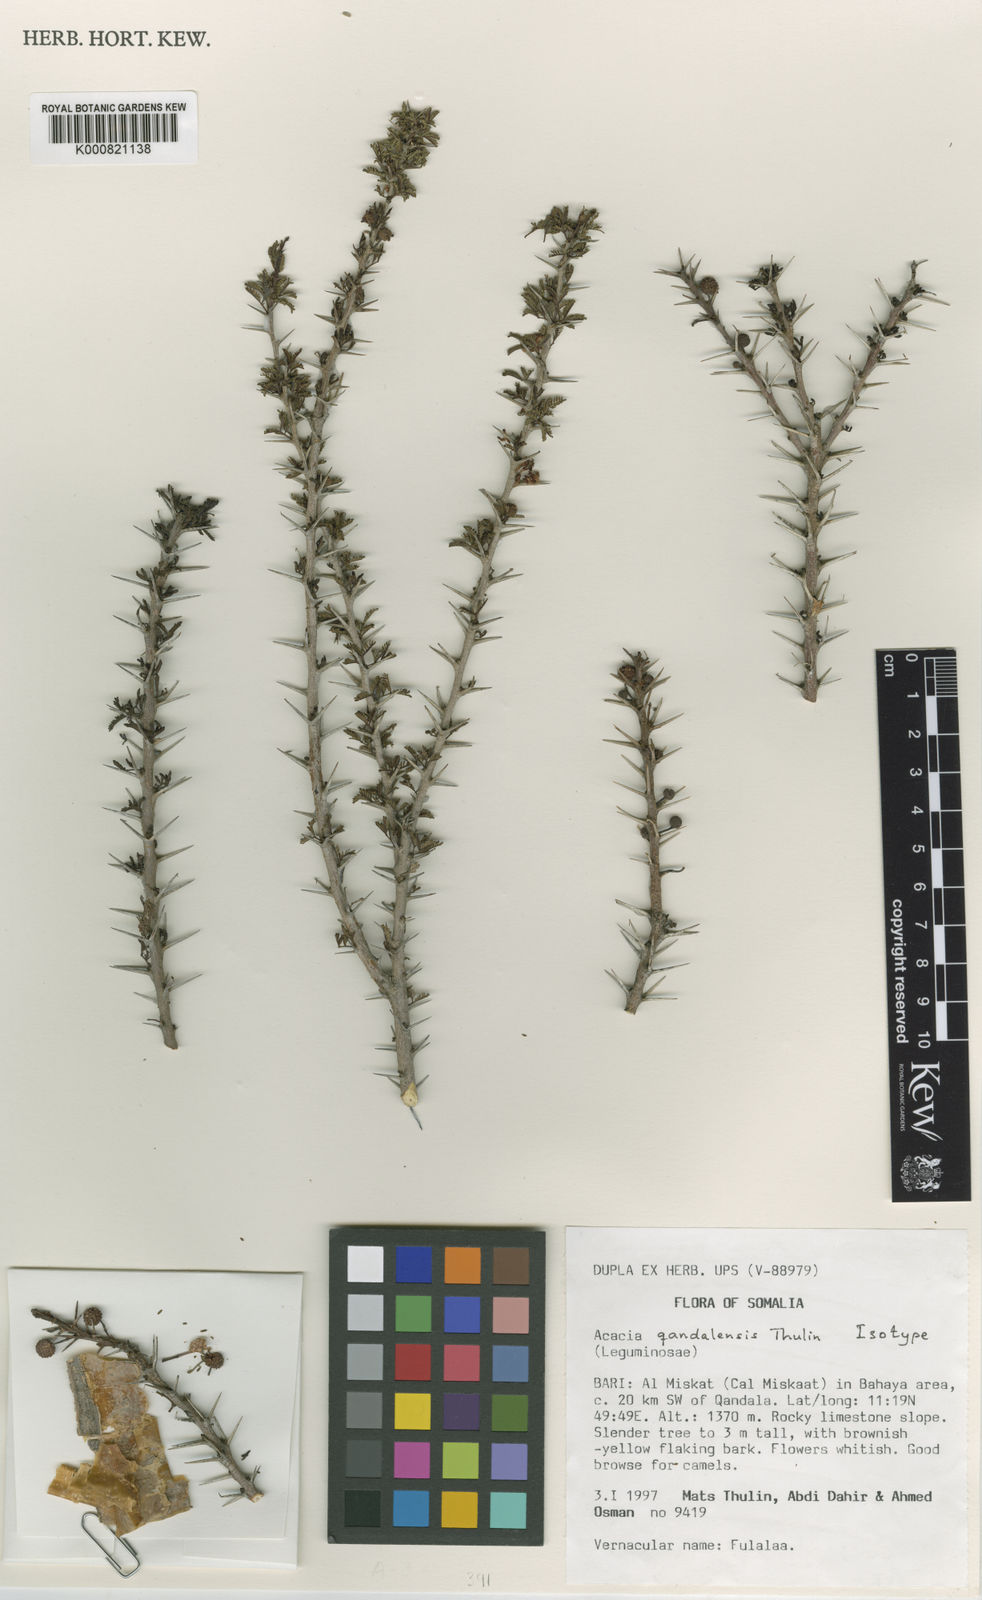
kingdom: Plantae
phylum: Tracheophyta
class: Magnoliopsida
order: Fabales
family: Fabaceae
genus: Vachellia
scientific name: Vachellia qandalensis
